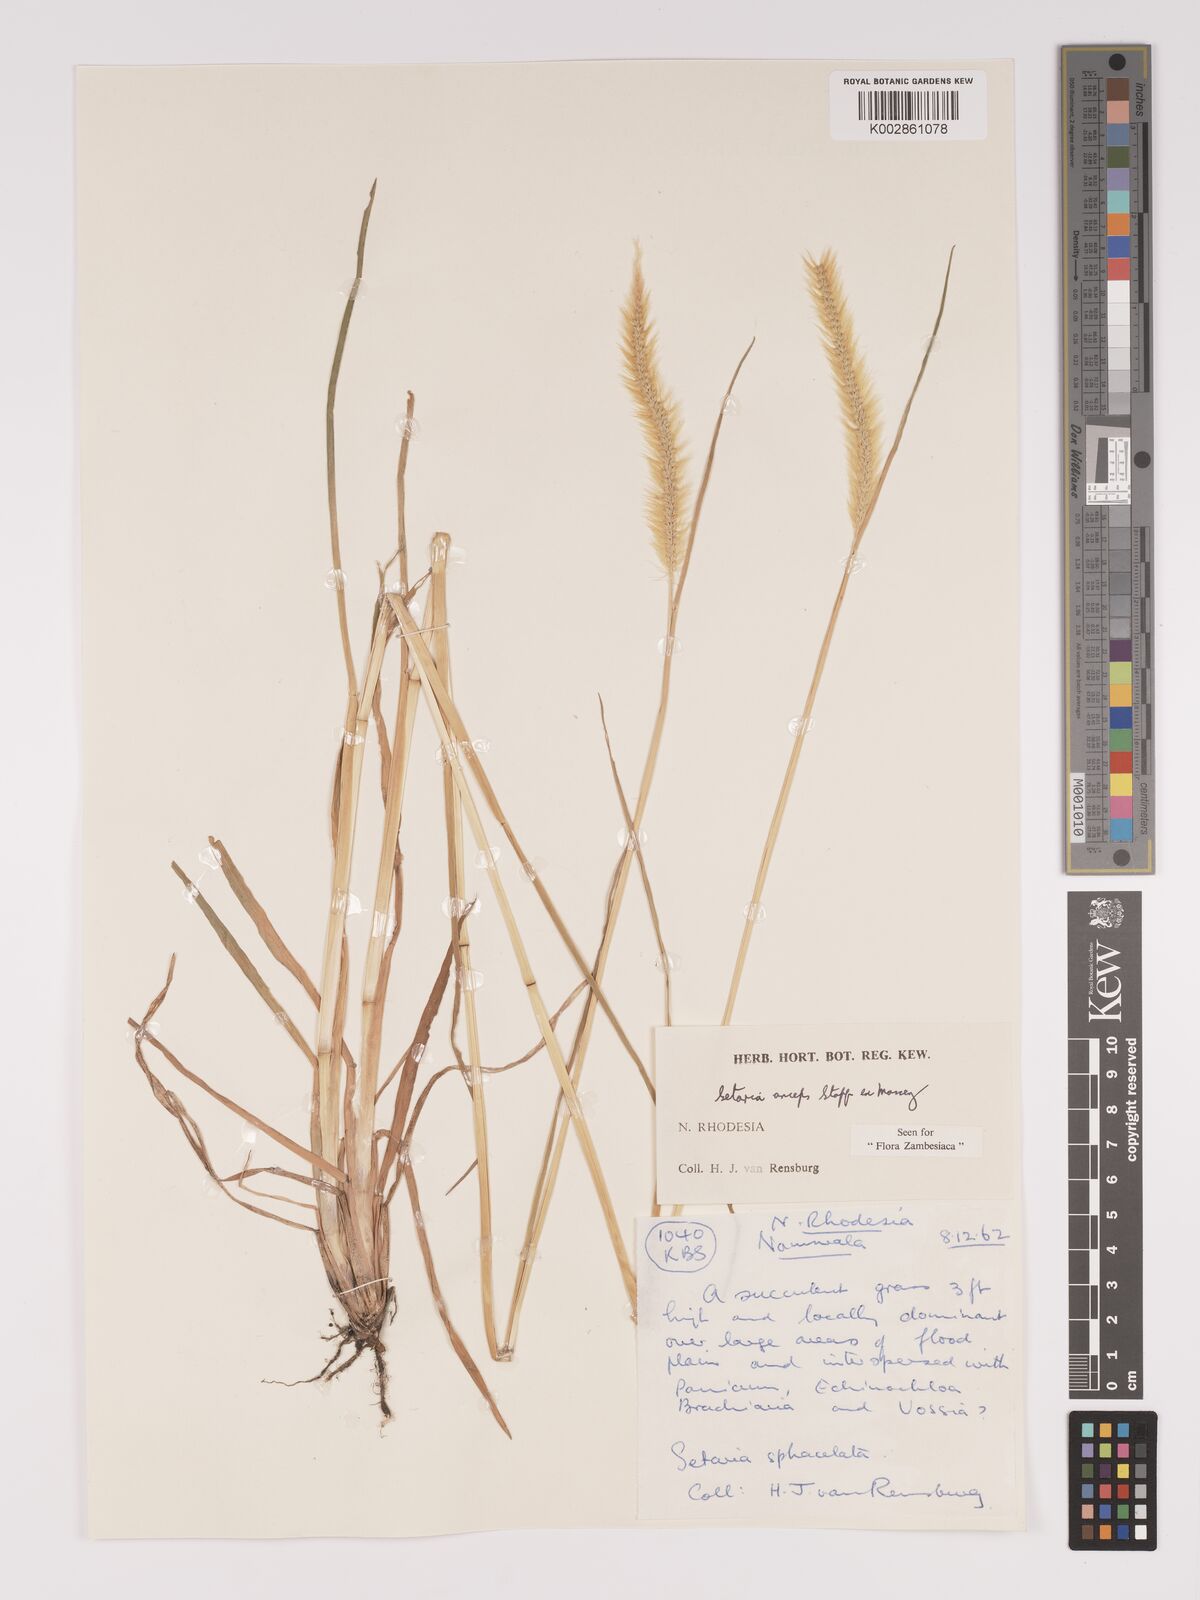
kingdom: Plantae
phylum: Tracheophyta
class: Liliopsida
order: Poales
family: Poaceae
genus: Setaria
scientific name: Setaria sphacelata
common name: African bristlegrass
